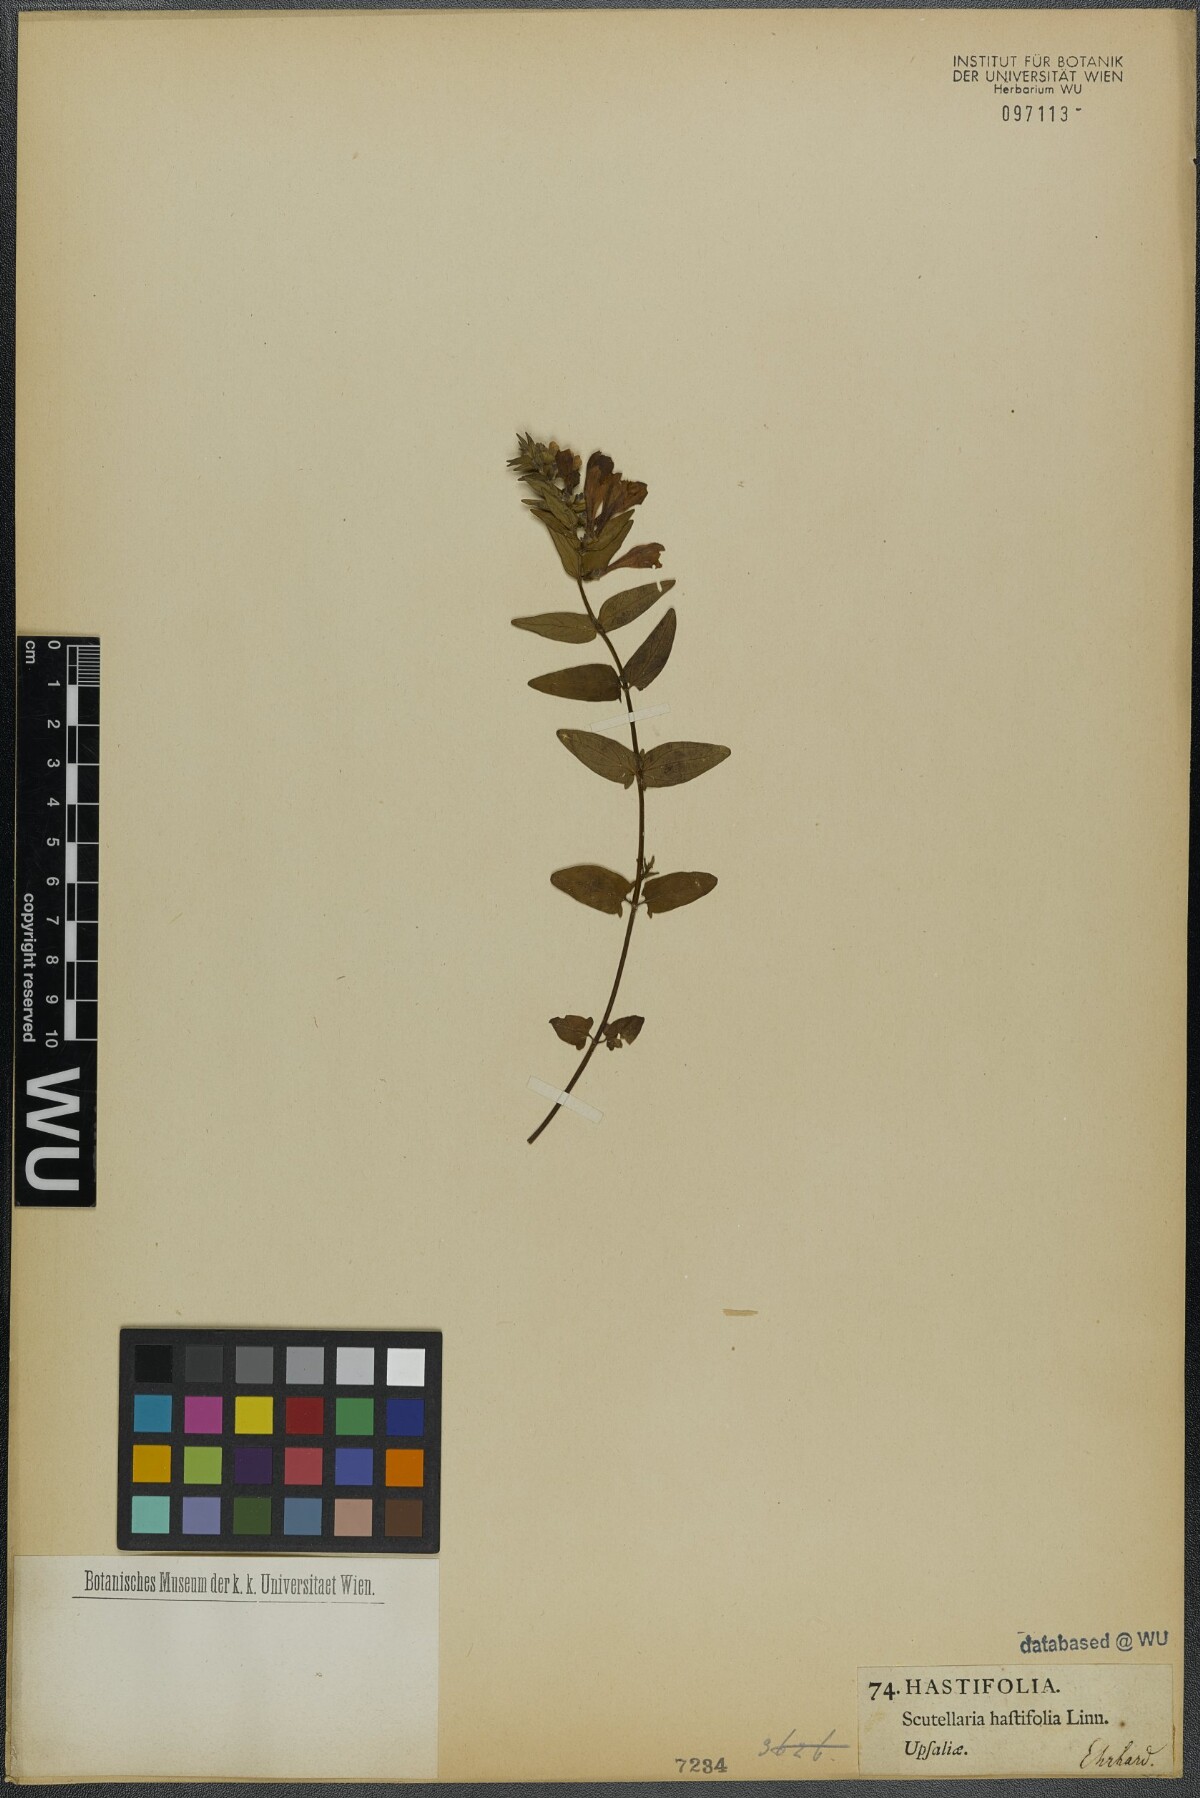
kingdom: Plantae
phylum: Tracheophyta
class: Magnoliopsida
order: Lamiales
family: Lamiaceae
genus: Scutellaria
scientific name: Scutellaria hastifolia
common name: Norfolk skullcap
